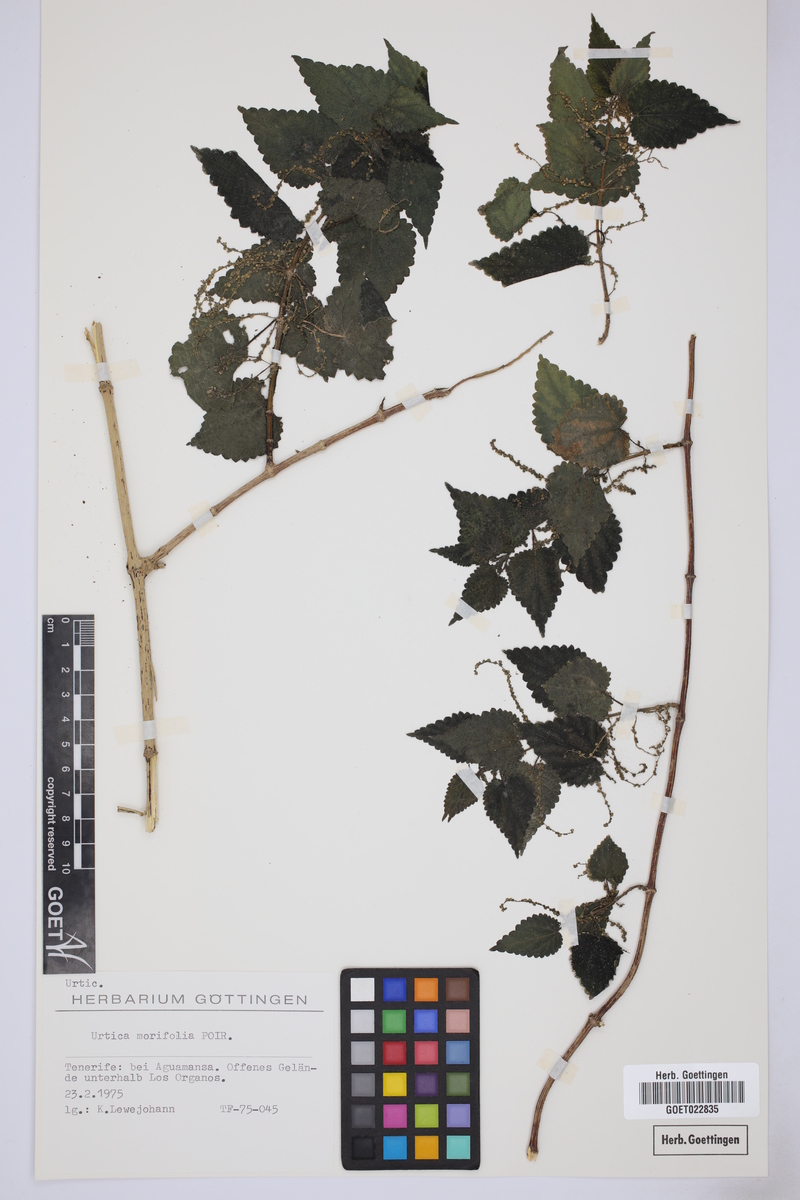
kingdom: Plantae
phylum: Tracheophyta
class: Magnoliopsida
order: Rosales
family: Urticaceae
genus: Urtica
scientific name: Urtica morifolia
